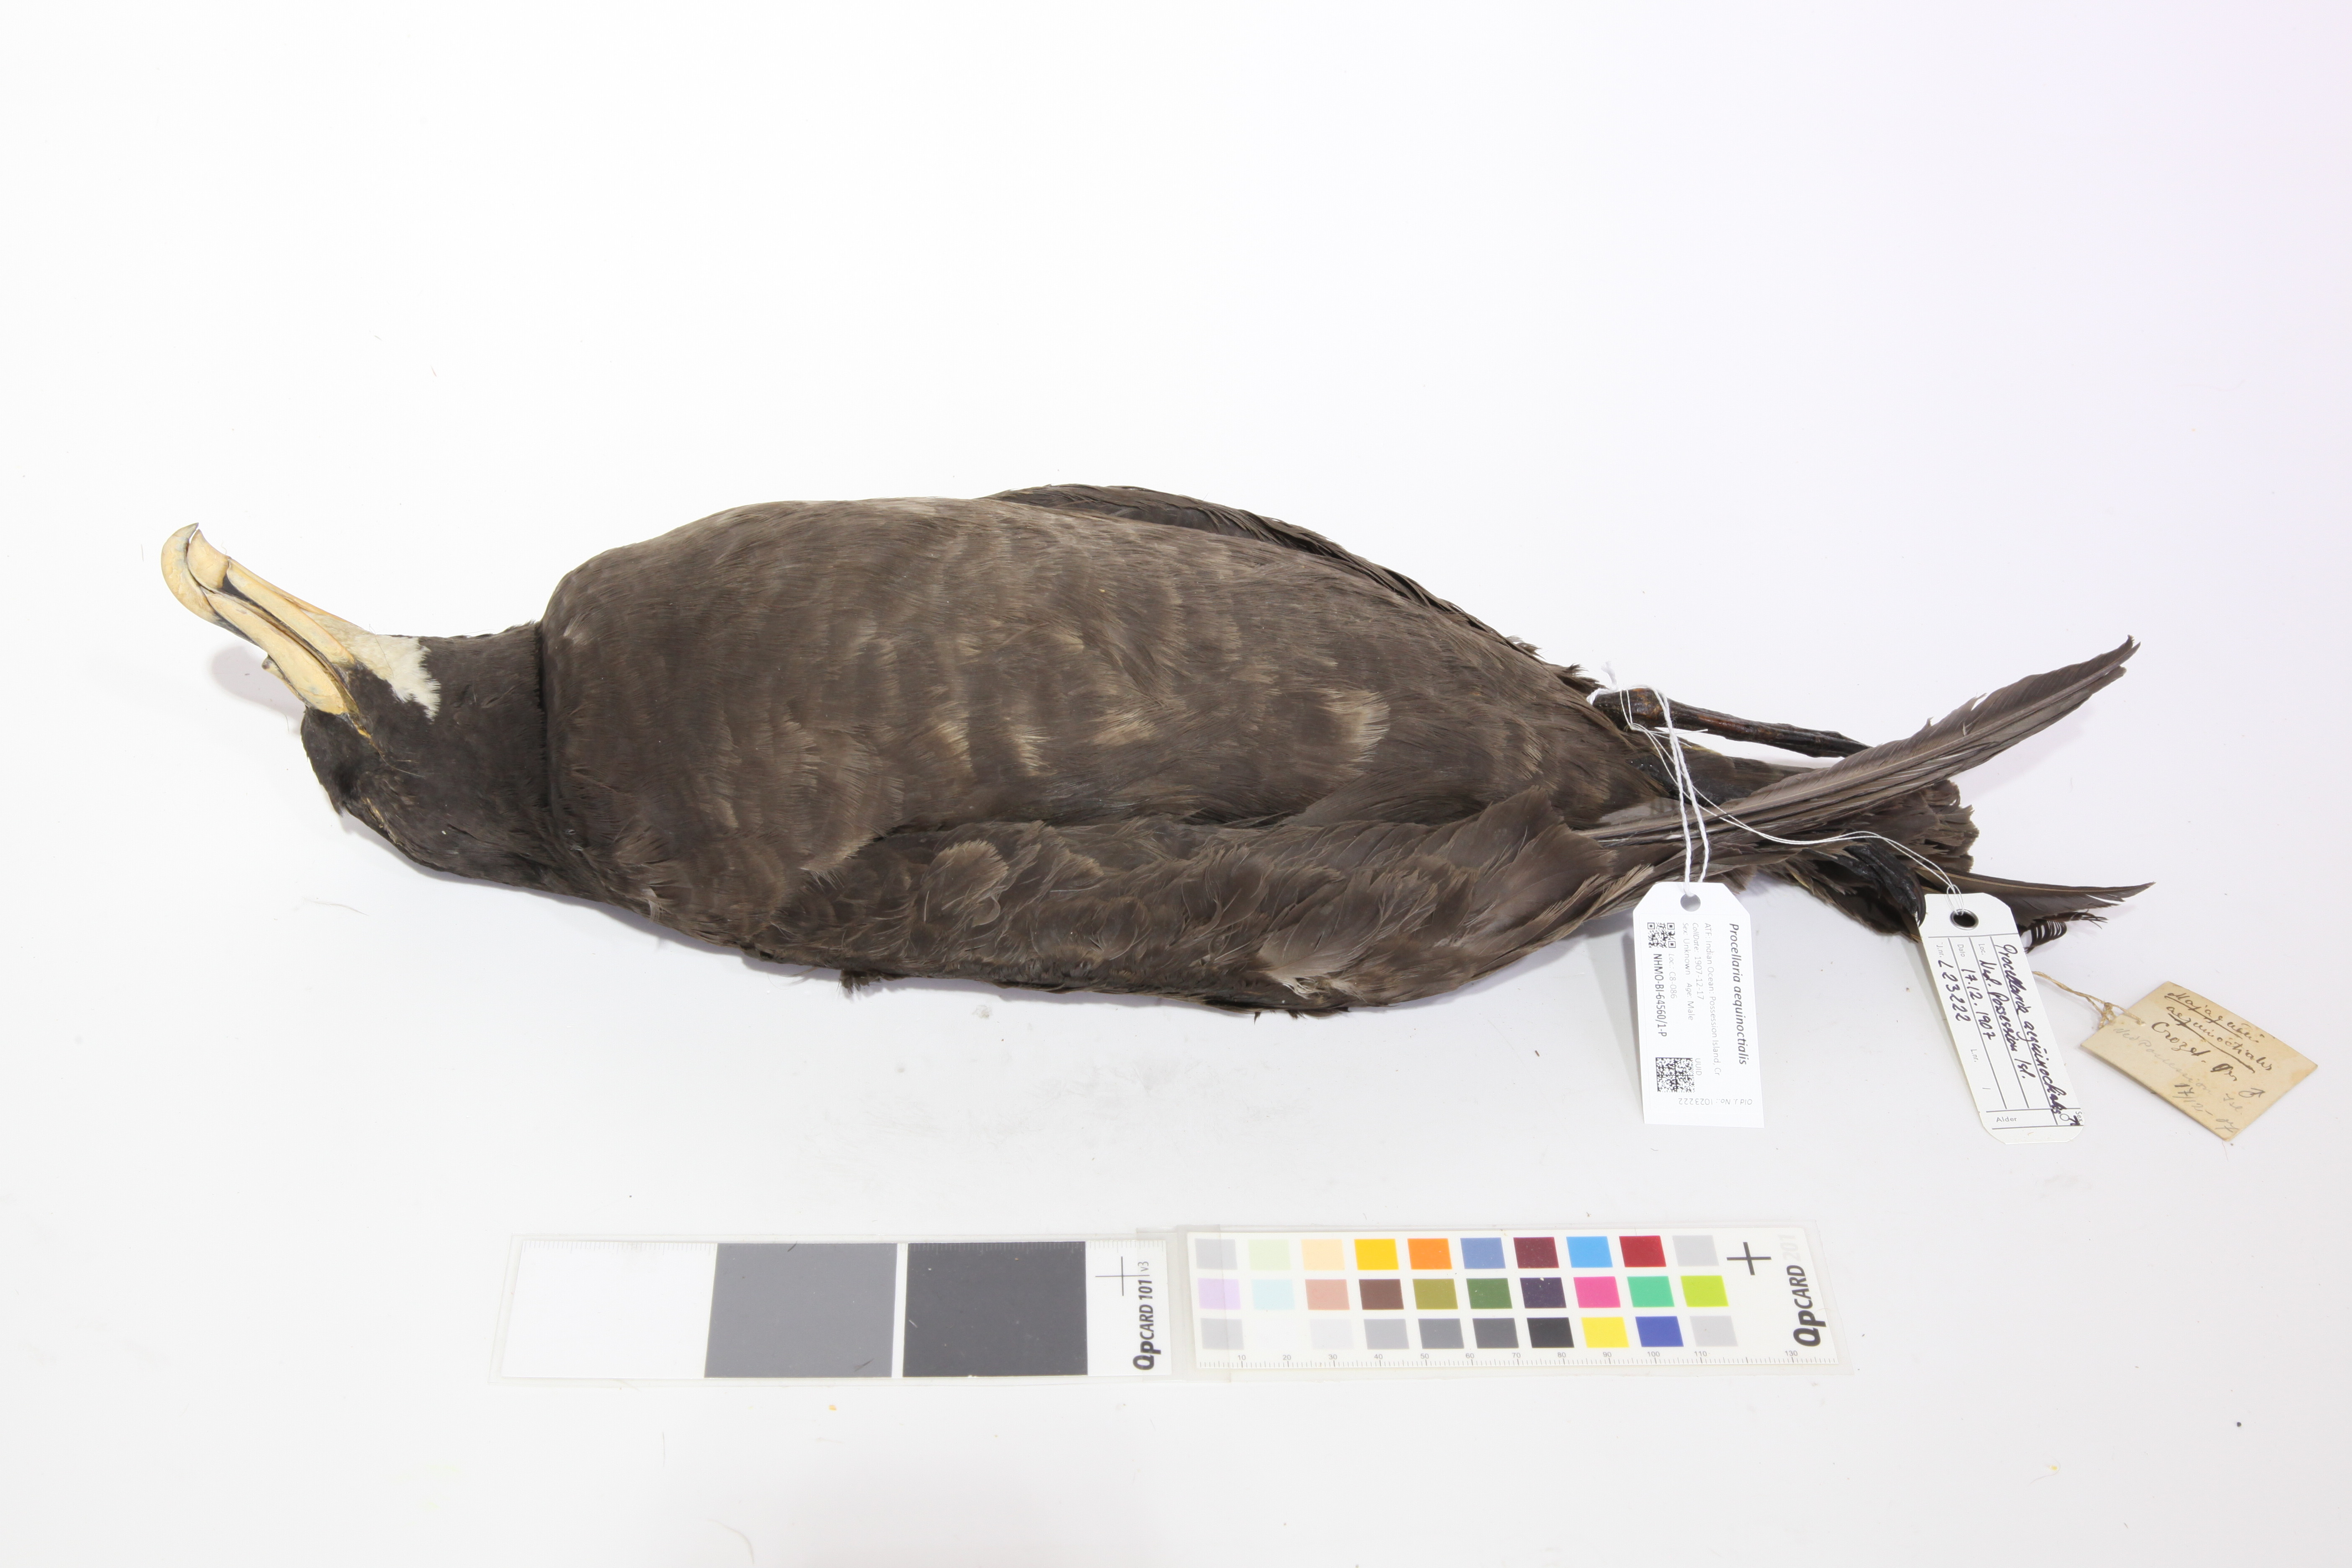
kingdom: Animalia
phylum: Chordata
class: Aves
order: Procellariiformes
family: Procellariidae
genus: Procellaria
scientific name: Procellaria aequinoctialis
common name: White-chinned petrel
